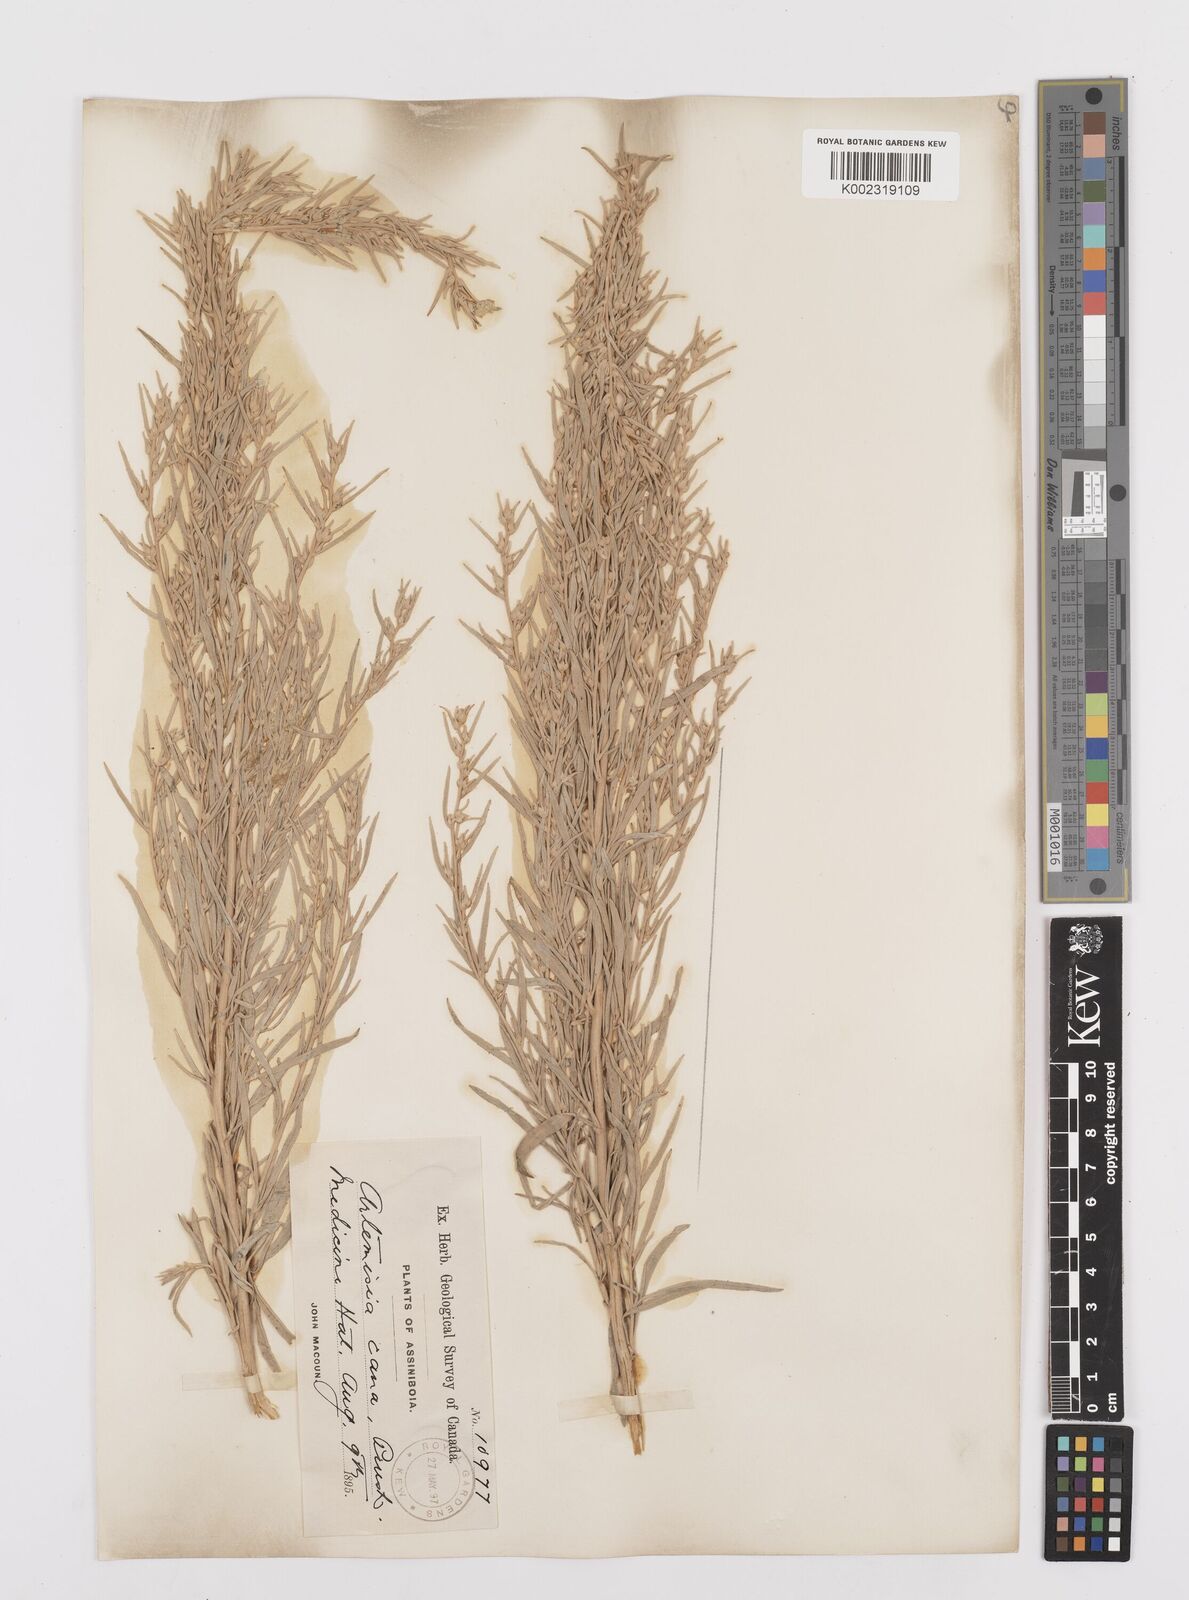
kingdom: Plantae
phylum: Tracheophyta
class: Magnoliopsida
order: Asterales
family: Asteraceae
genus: Artemisia
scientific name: Artemisia cana
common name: Silver sagebrush
